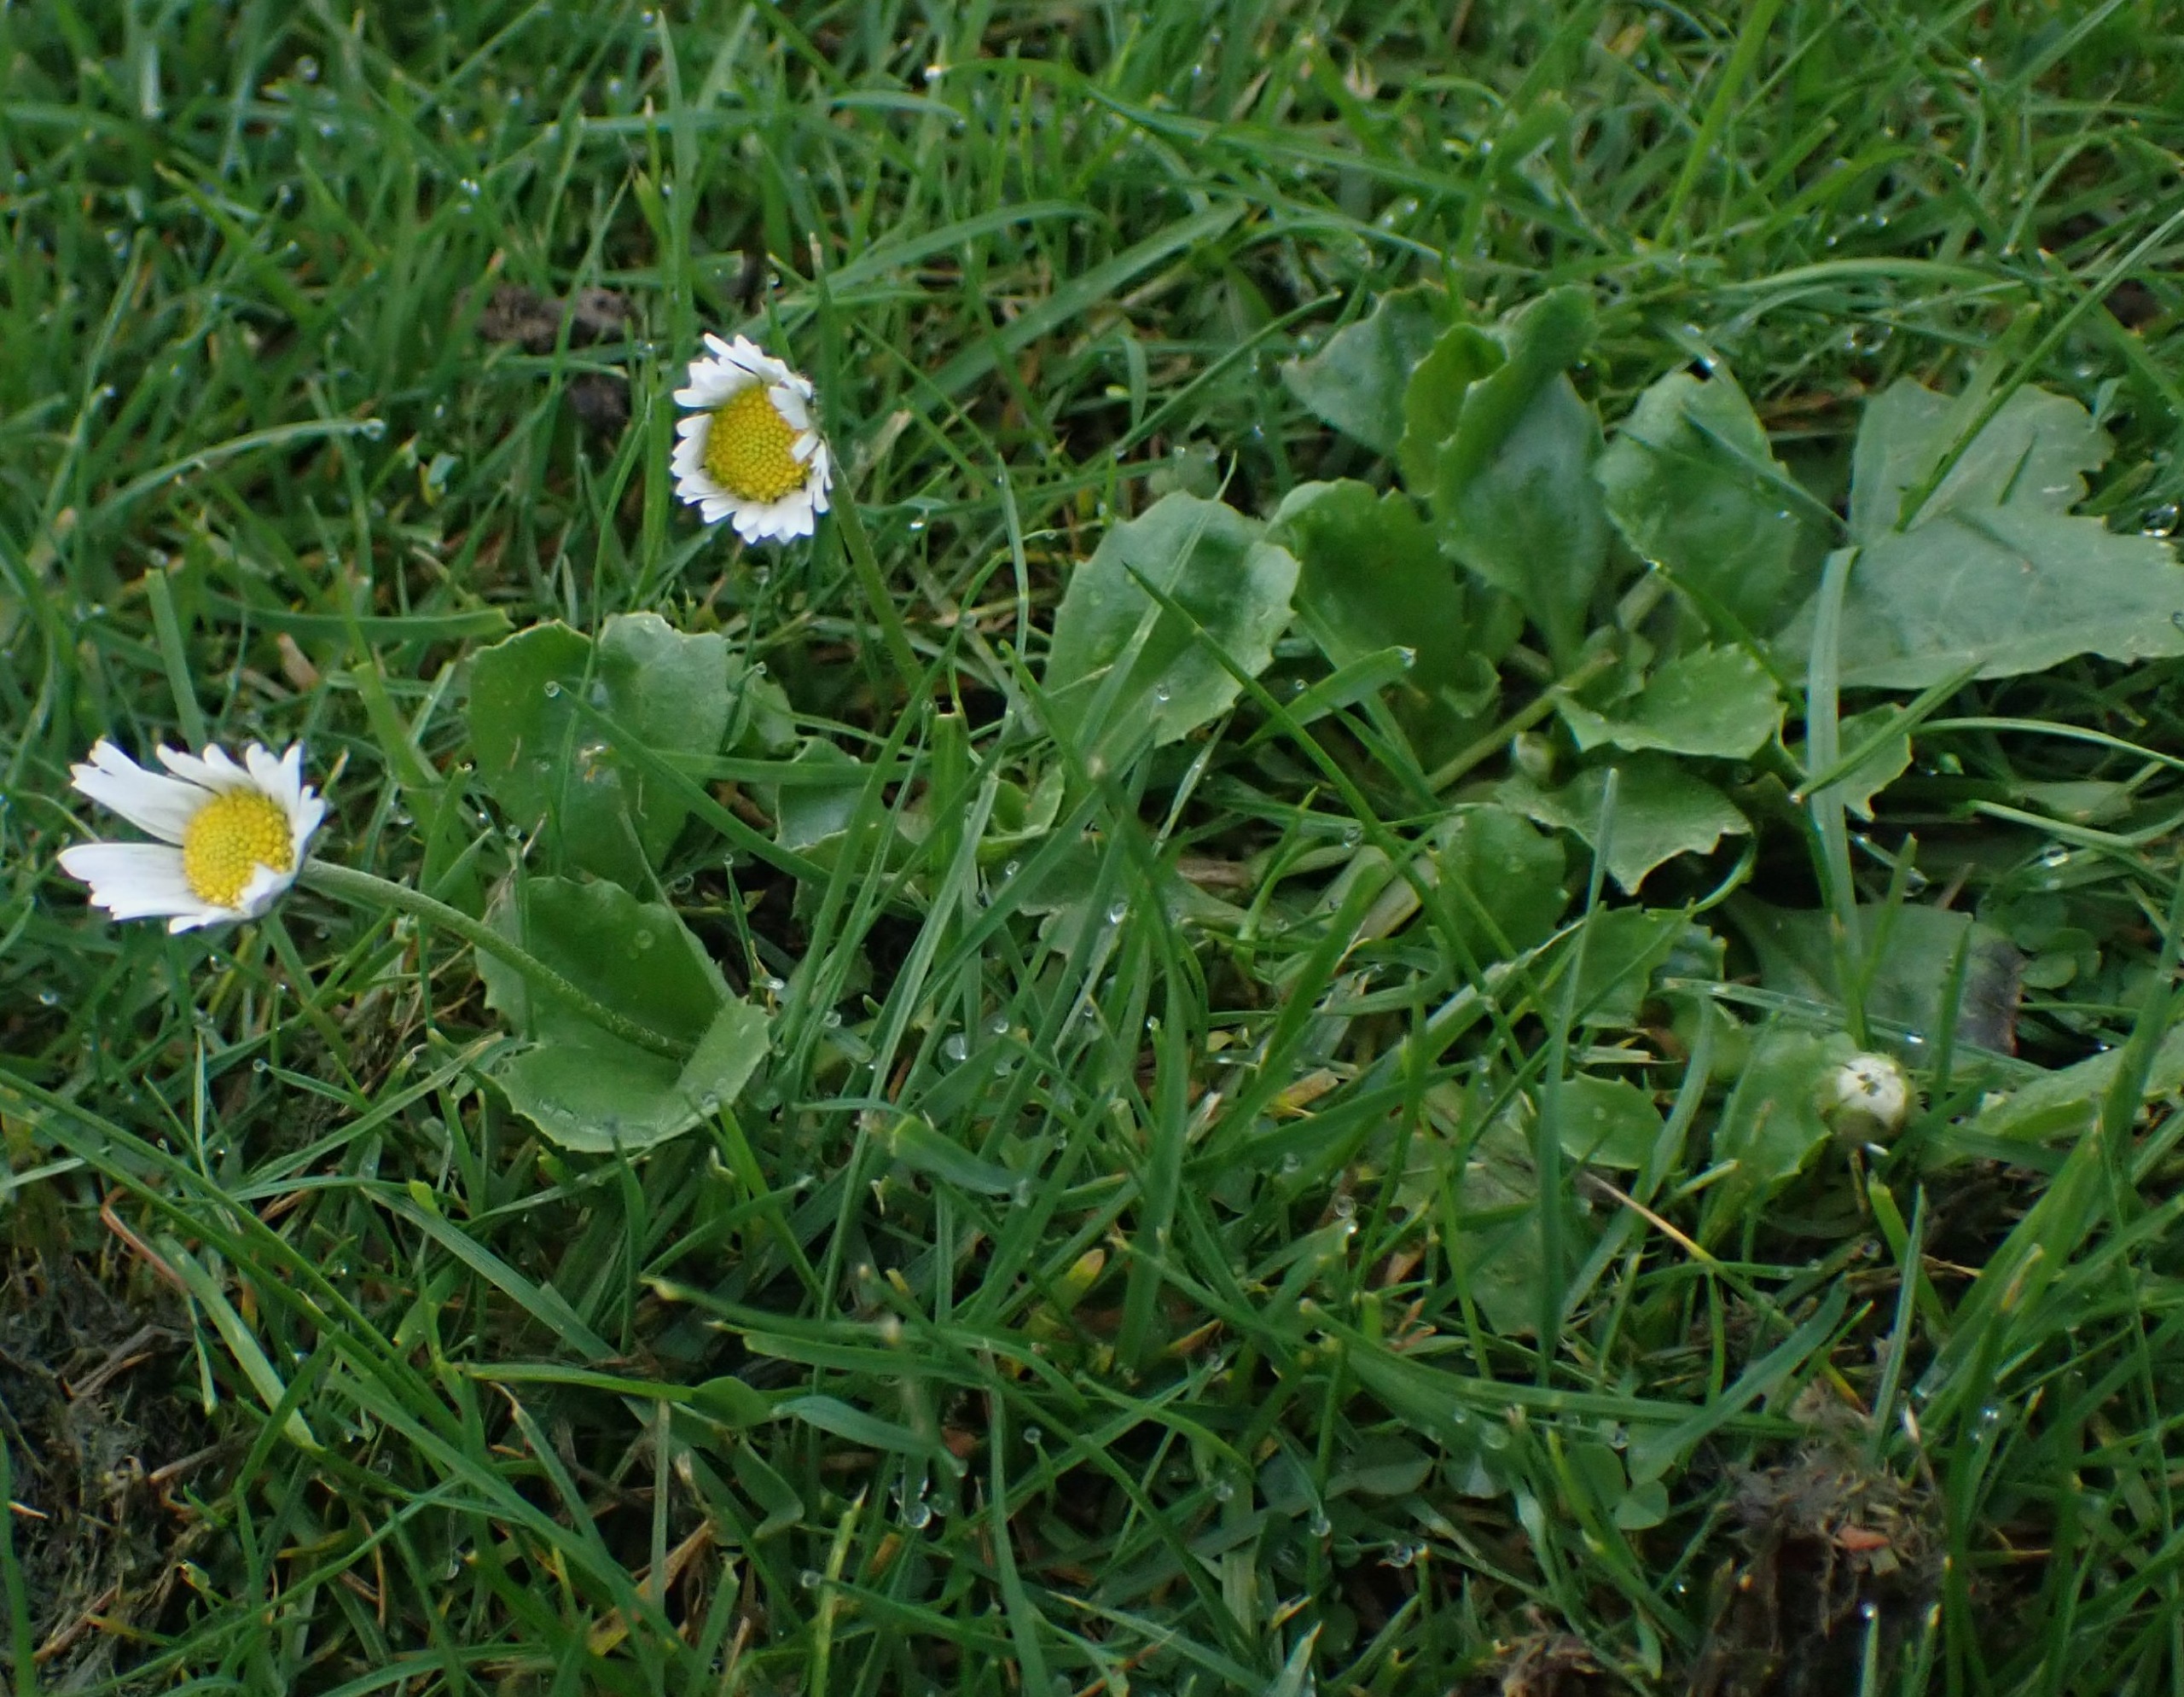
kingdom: Plantae
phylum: Tracheophyta
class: Magnoliopsida
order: Asterales
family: Asteraceae
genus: Bellis
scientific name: Bellis perennis
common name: Tusindfryd
